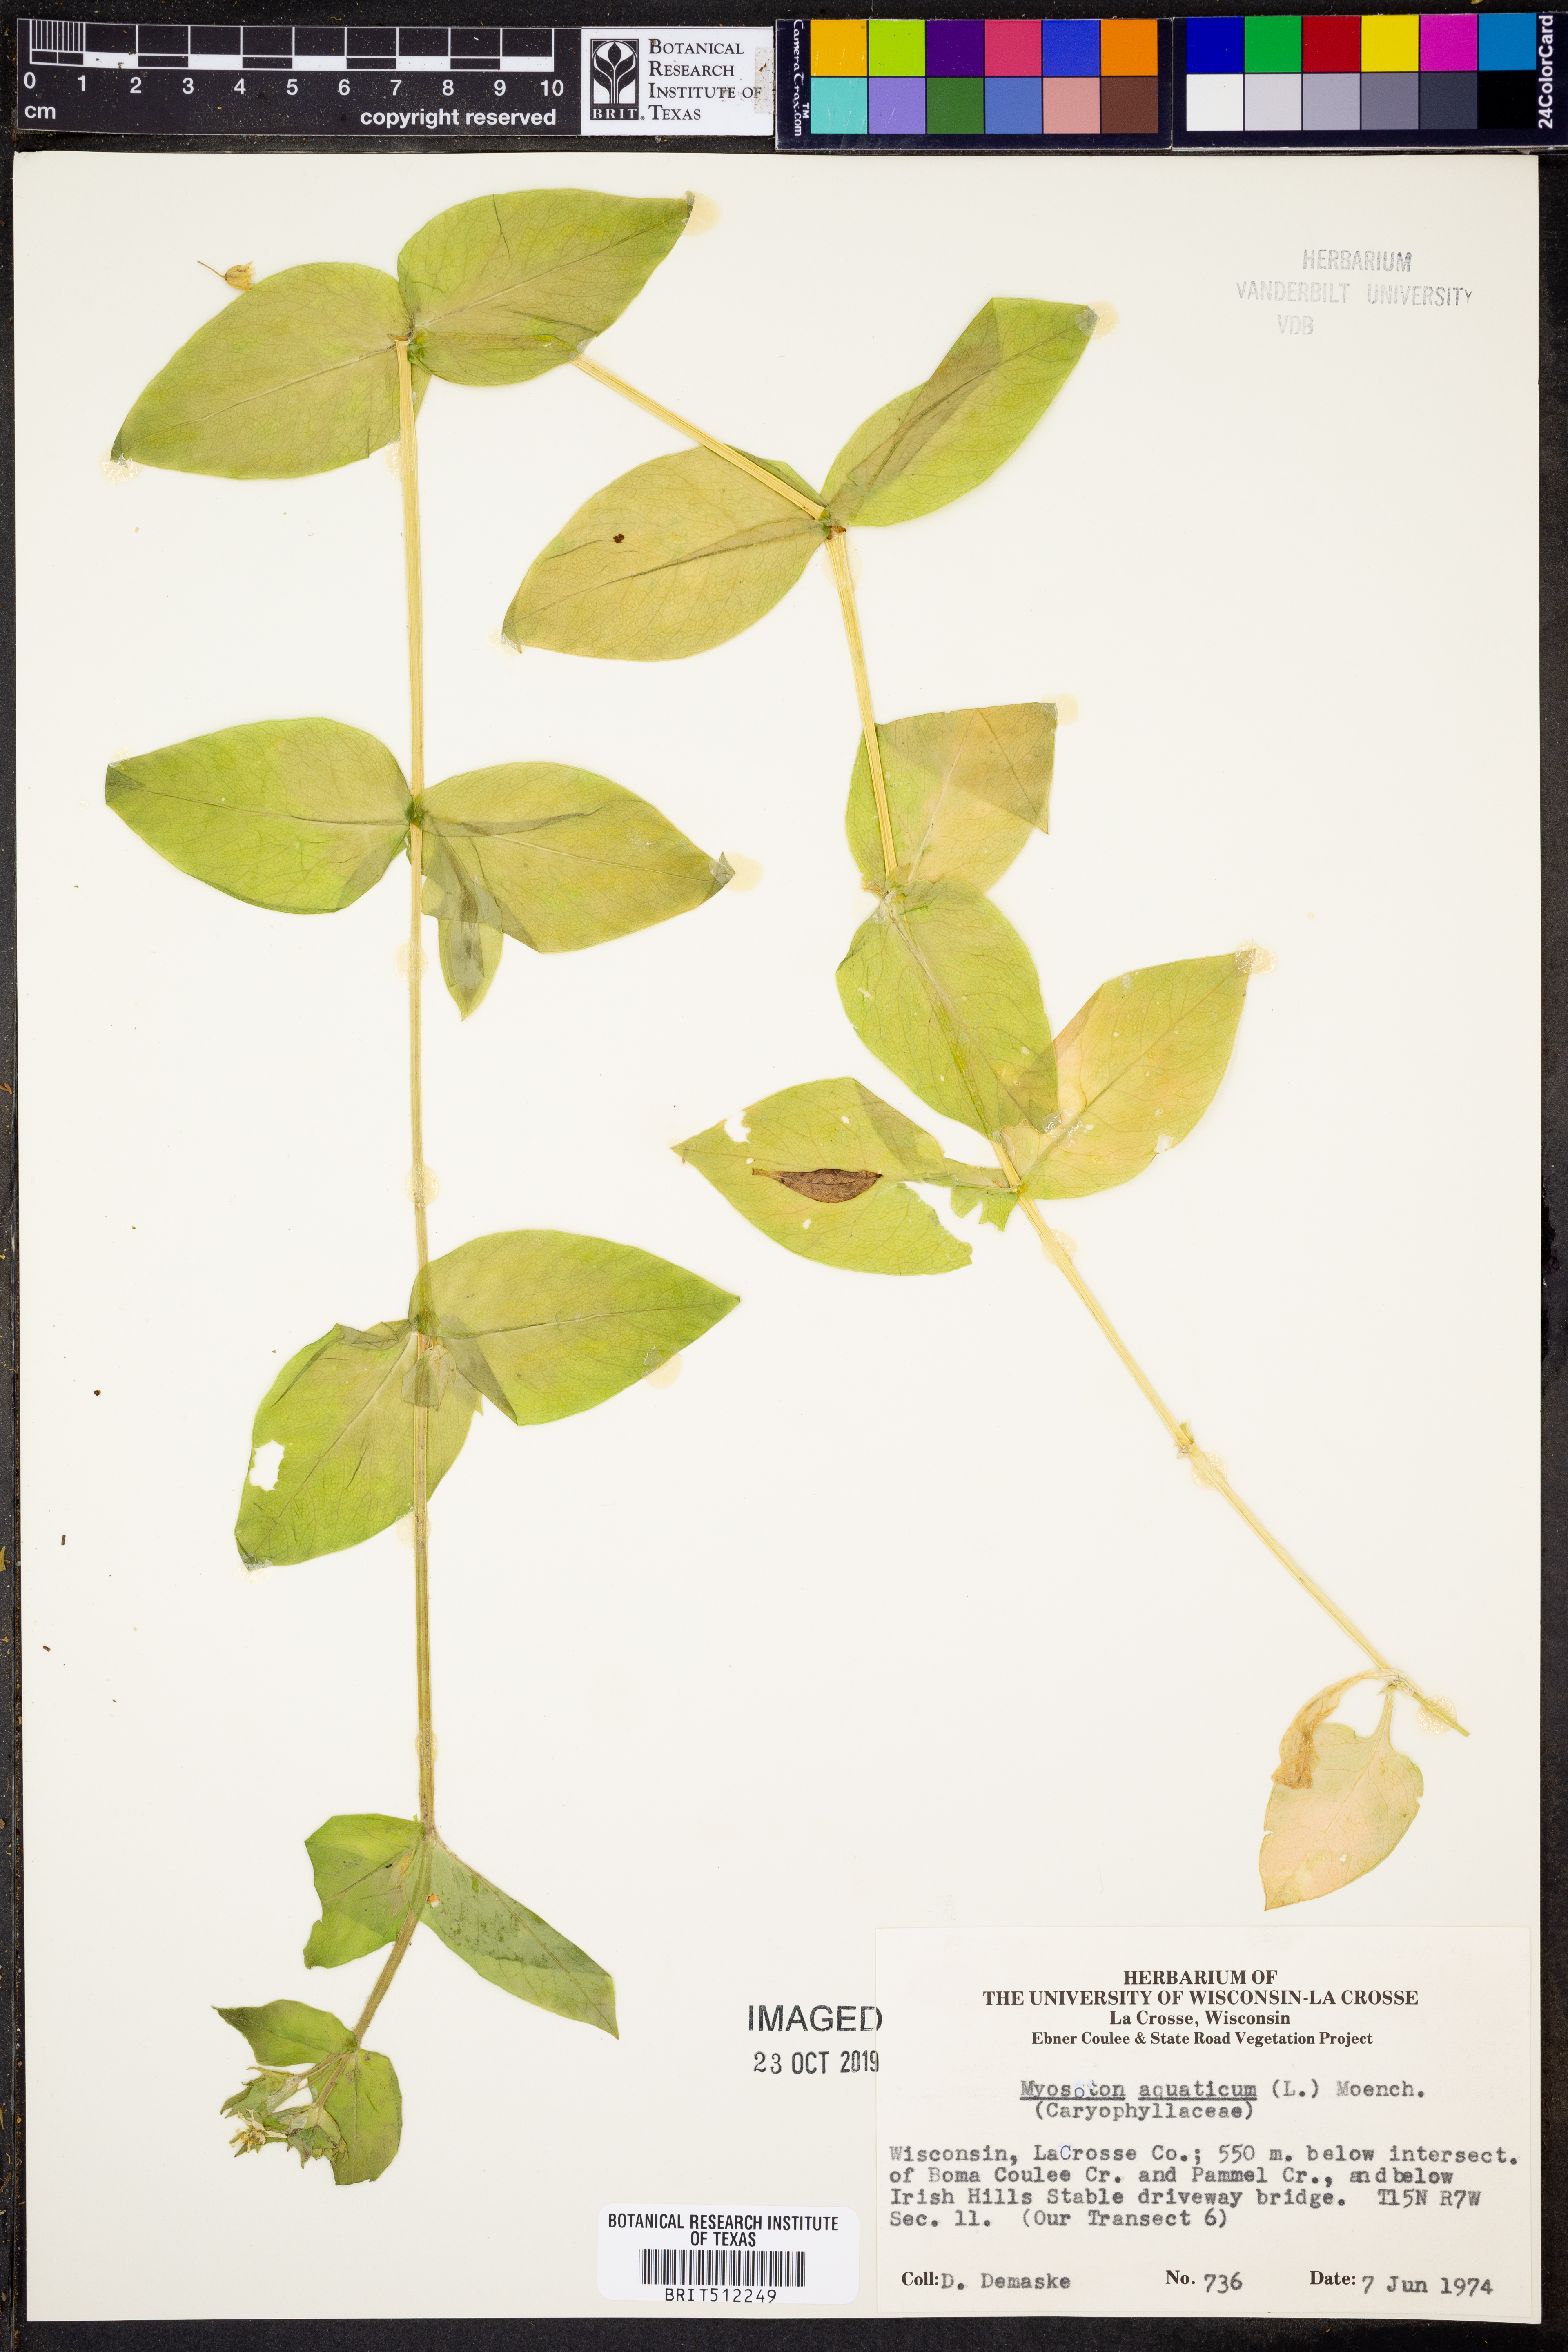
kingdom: Plantae
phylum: Tracheophyta
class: Magnoliopsida
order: Caryophyllales
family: Caryophyllaceae
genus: Stellaria
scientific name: Stellaria aquatica
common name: Water chickweed
